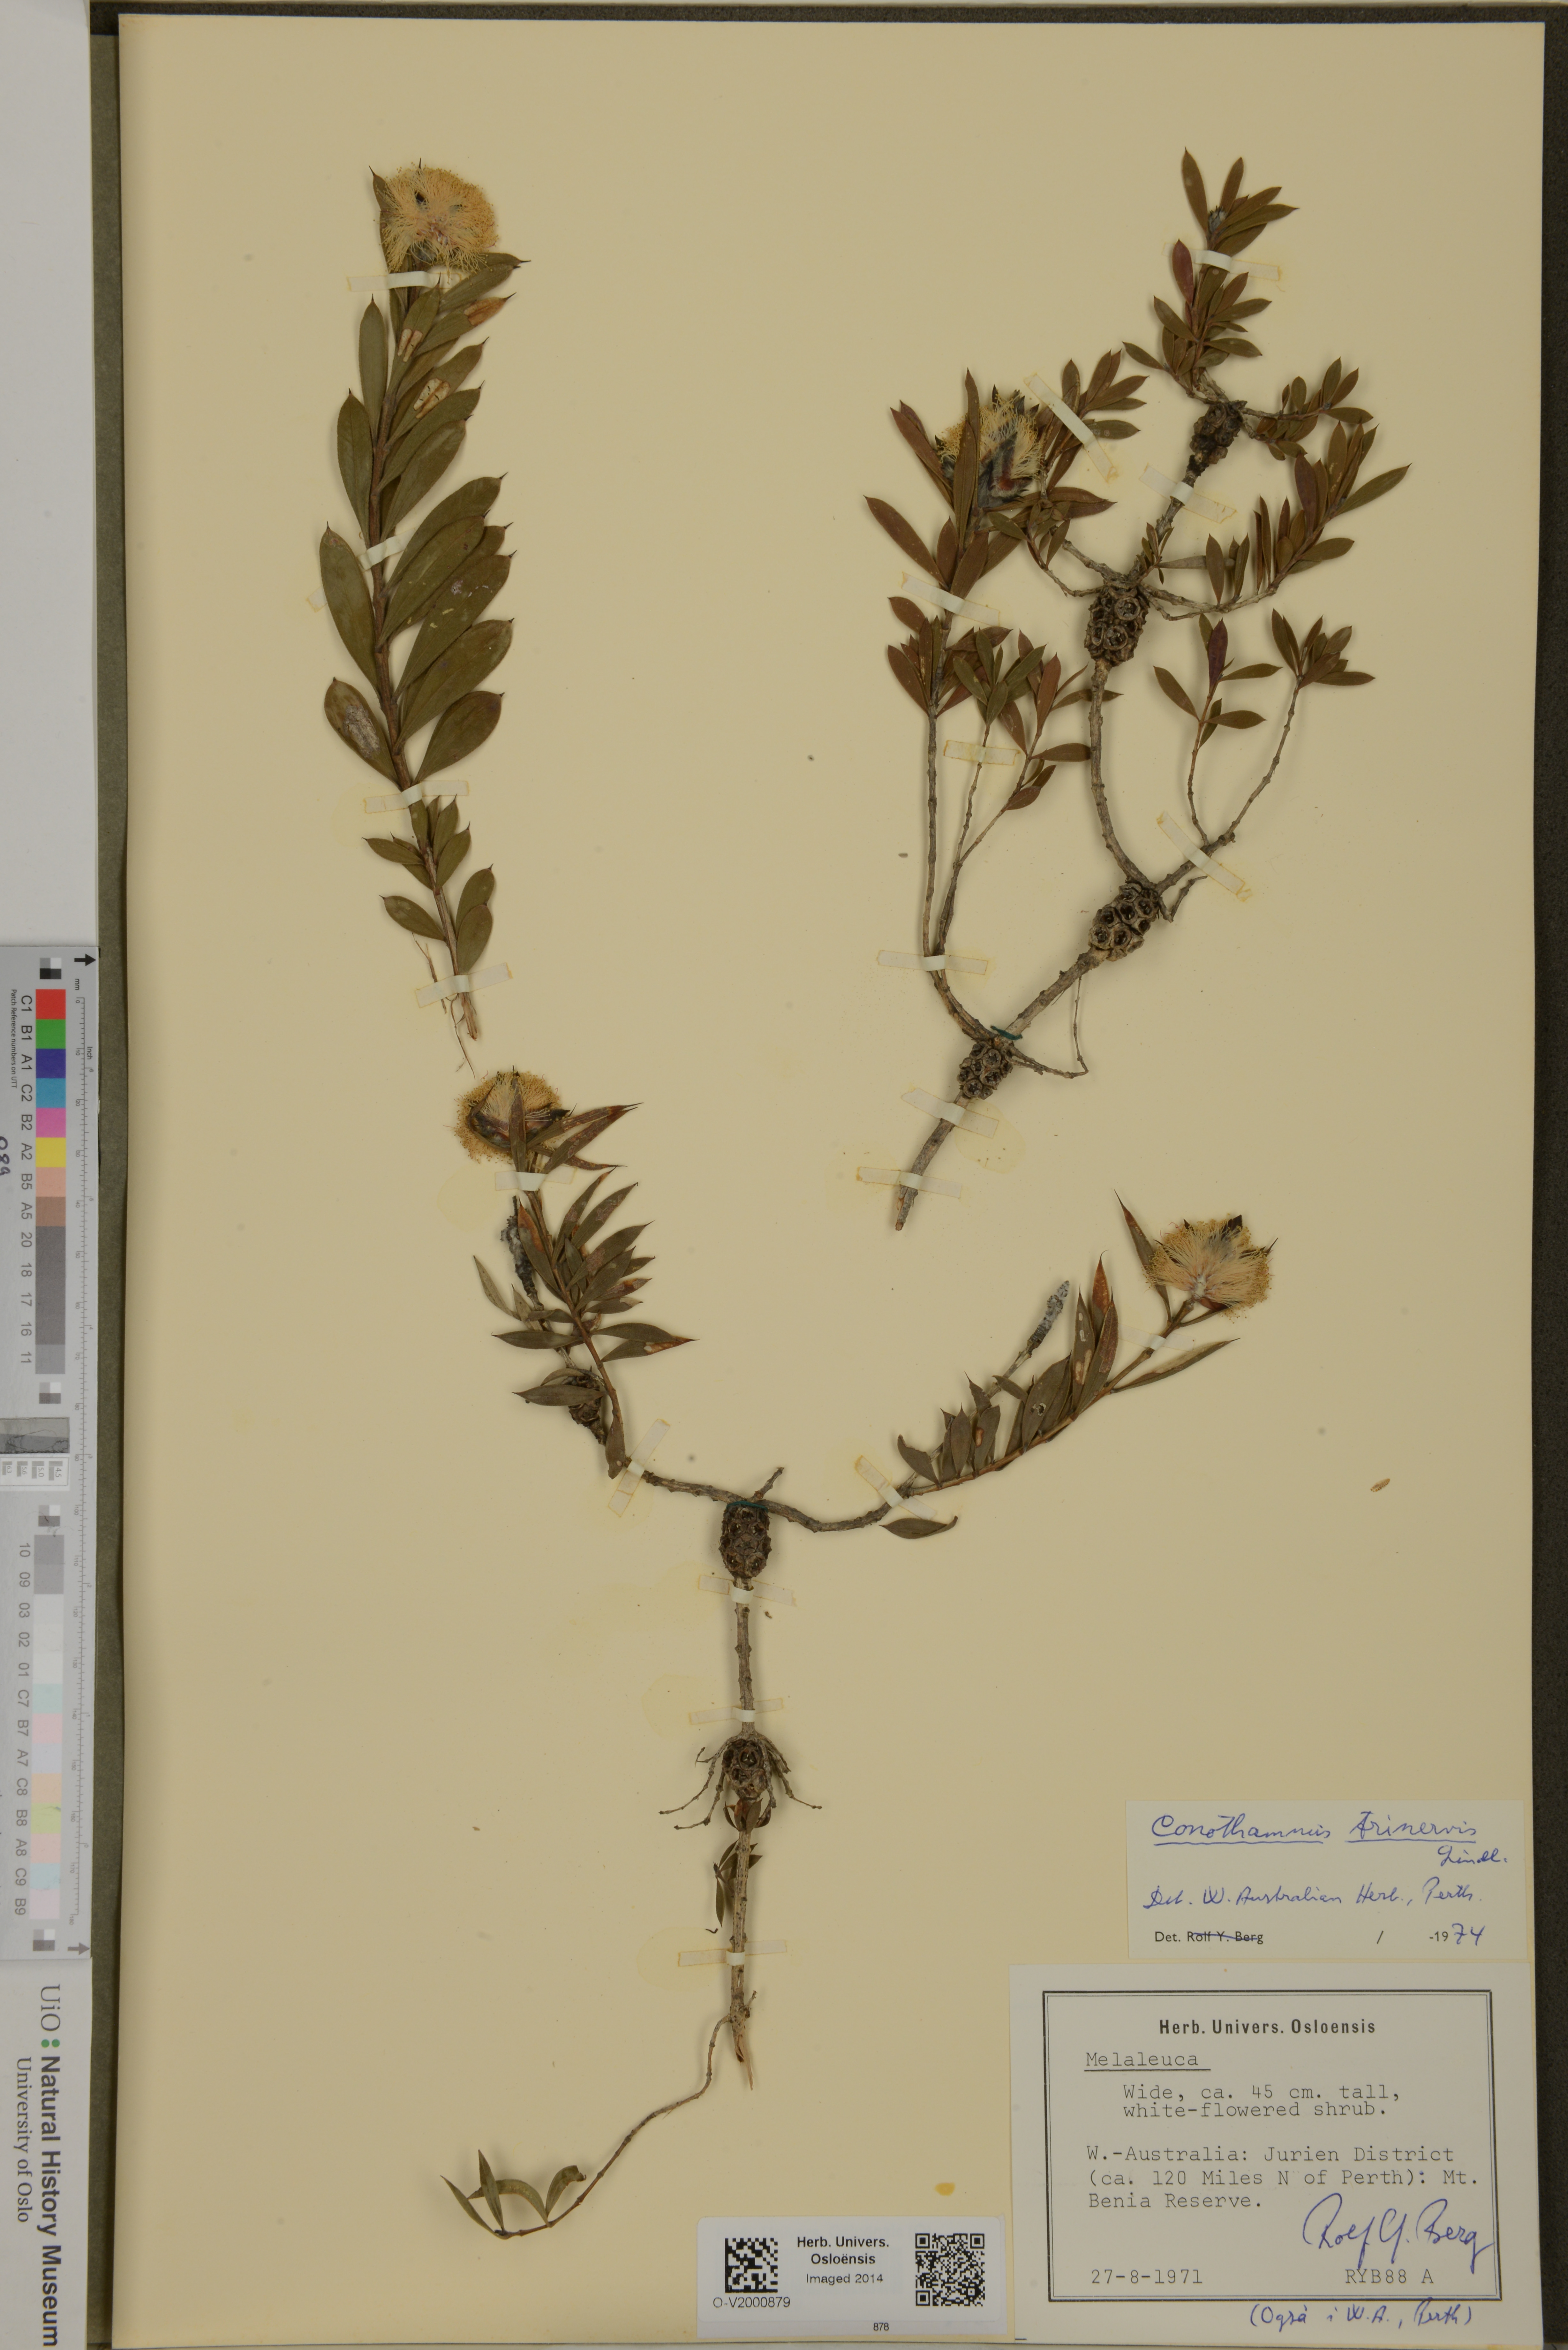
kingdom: Plantae
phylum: Tracheophyta
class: Magnoliopsida
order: Myrtales
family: Myrtaceae
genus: Melaleuca
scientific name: Melaleuca cowleyae
